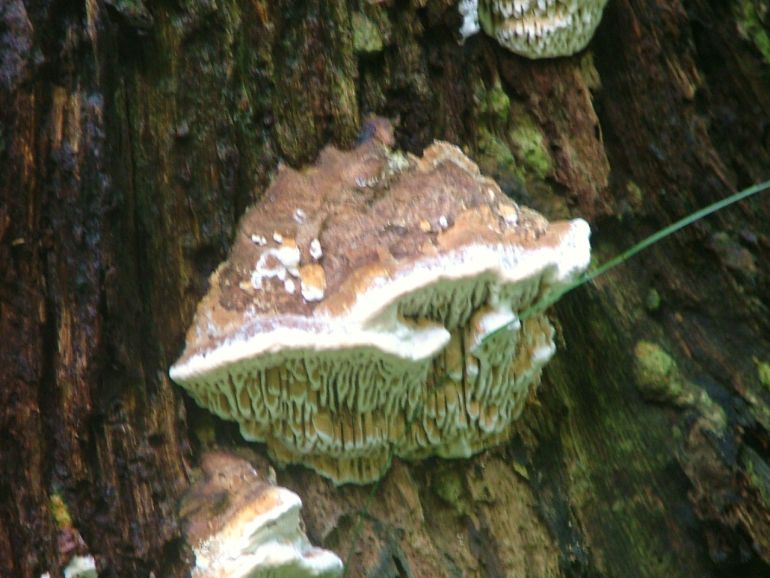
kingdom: Fungi
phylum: Basidiomycota
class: Agaricomycetes
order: Polyporales
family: Fomitopsidaceae
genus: Daedalea
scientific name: Daedalea quercina
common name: ege-labyrintsvamp
